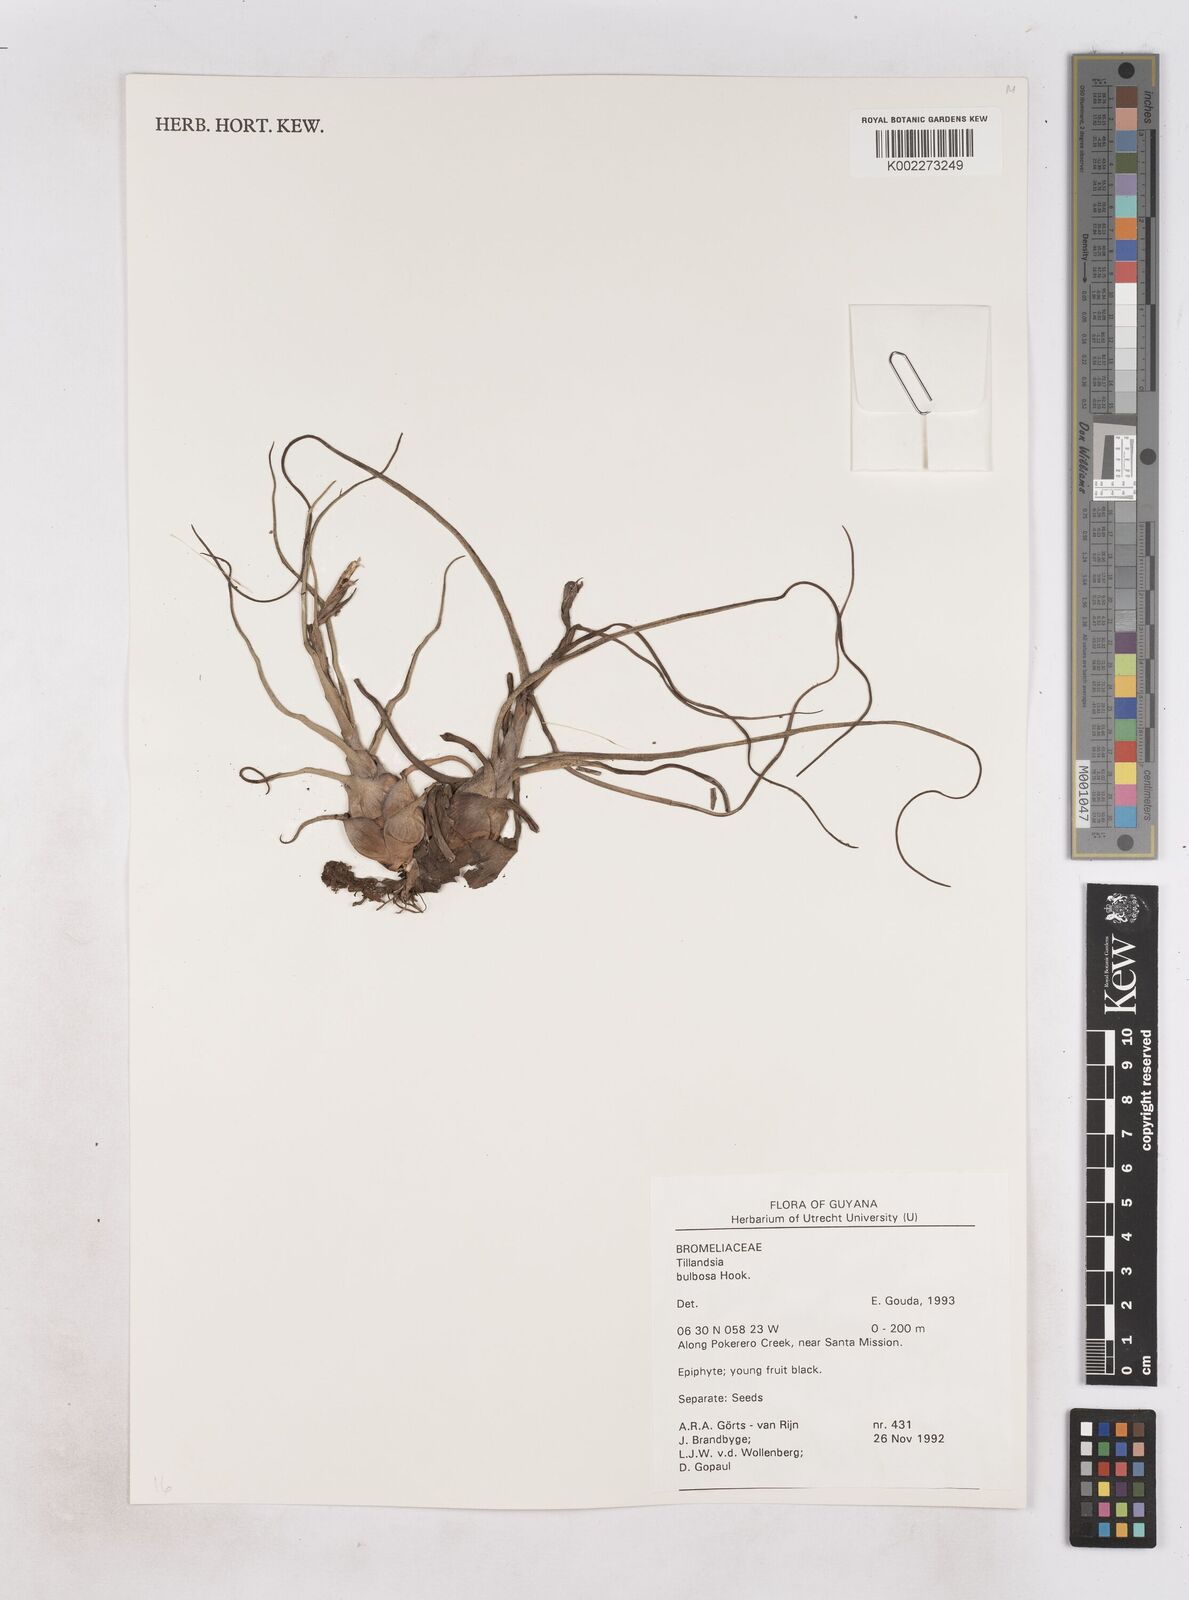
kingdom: Plantae
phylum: Tracheophyta
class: Liliopsida
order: Poales
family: Bromeliaceae
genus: Tillandsia
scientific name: Tillandsia bulbosa
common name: Bulbous airplant
